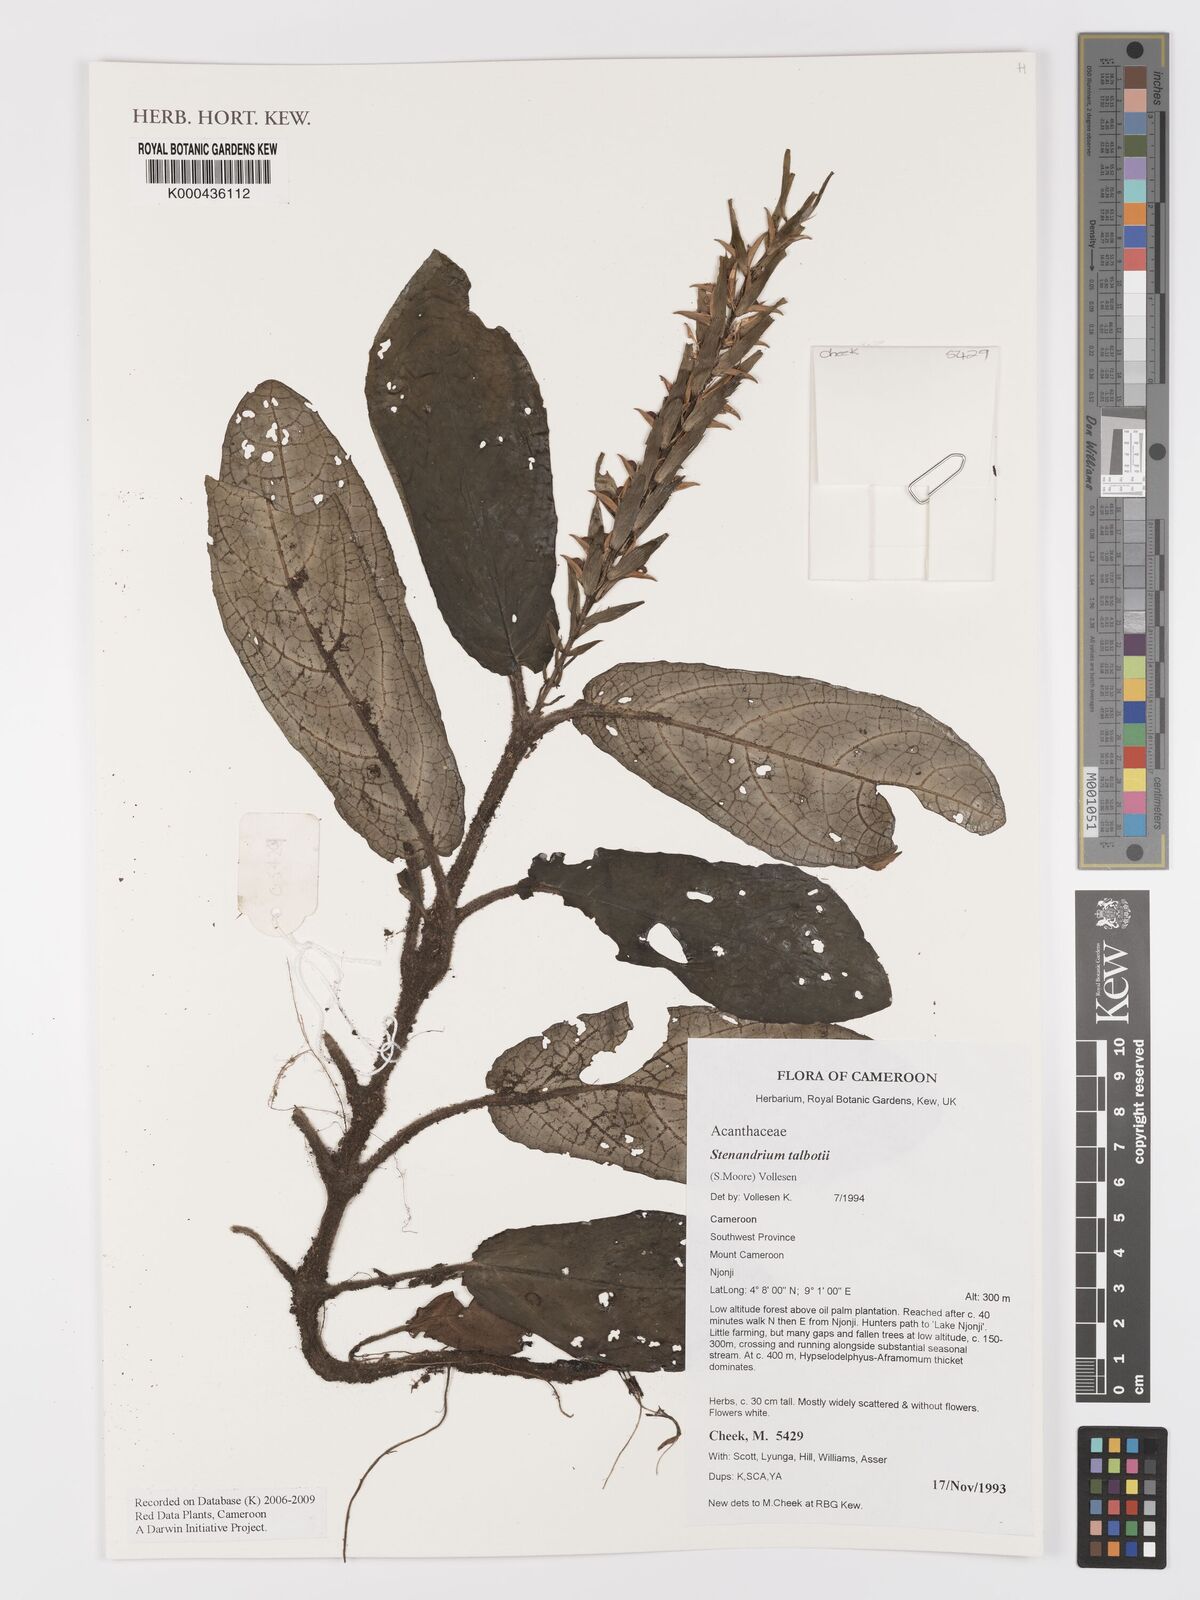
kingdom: Plantae
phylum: Tracheophyta
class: Magnoliopsida
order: Lamiales
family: Acanthaceae
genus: Stenandriopsis
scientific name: Stenandriopsis talbotii
